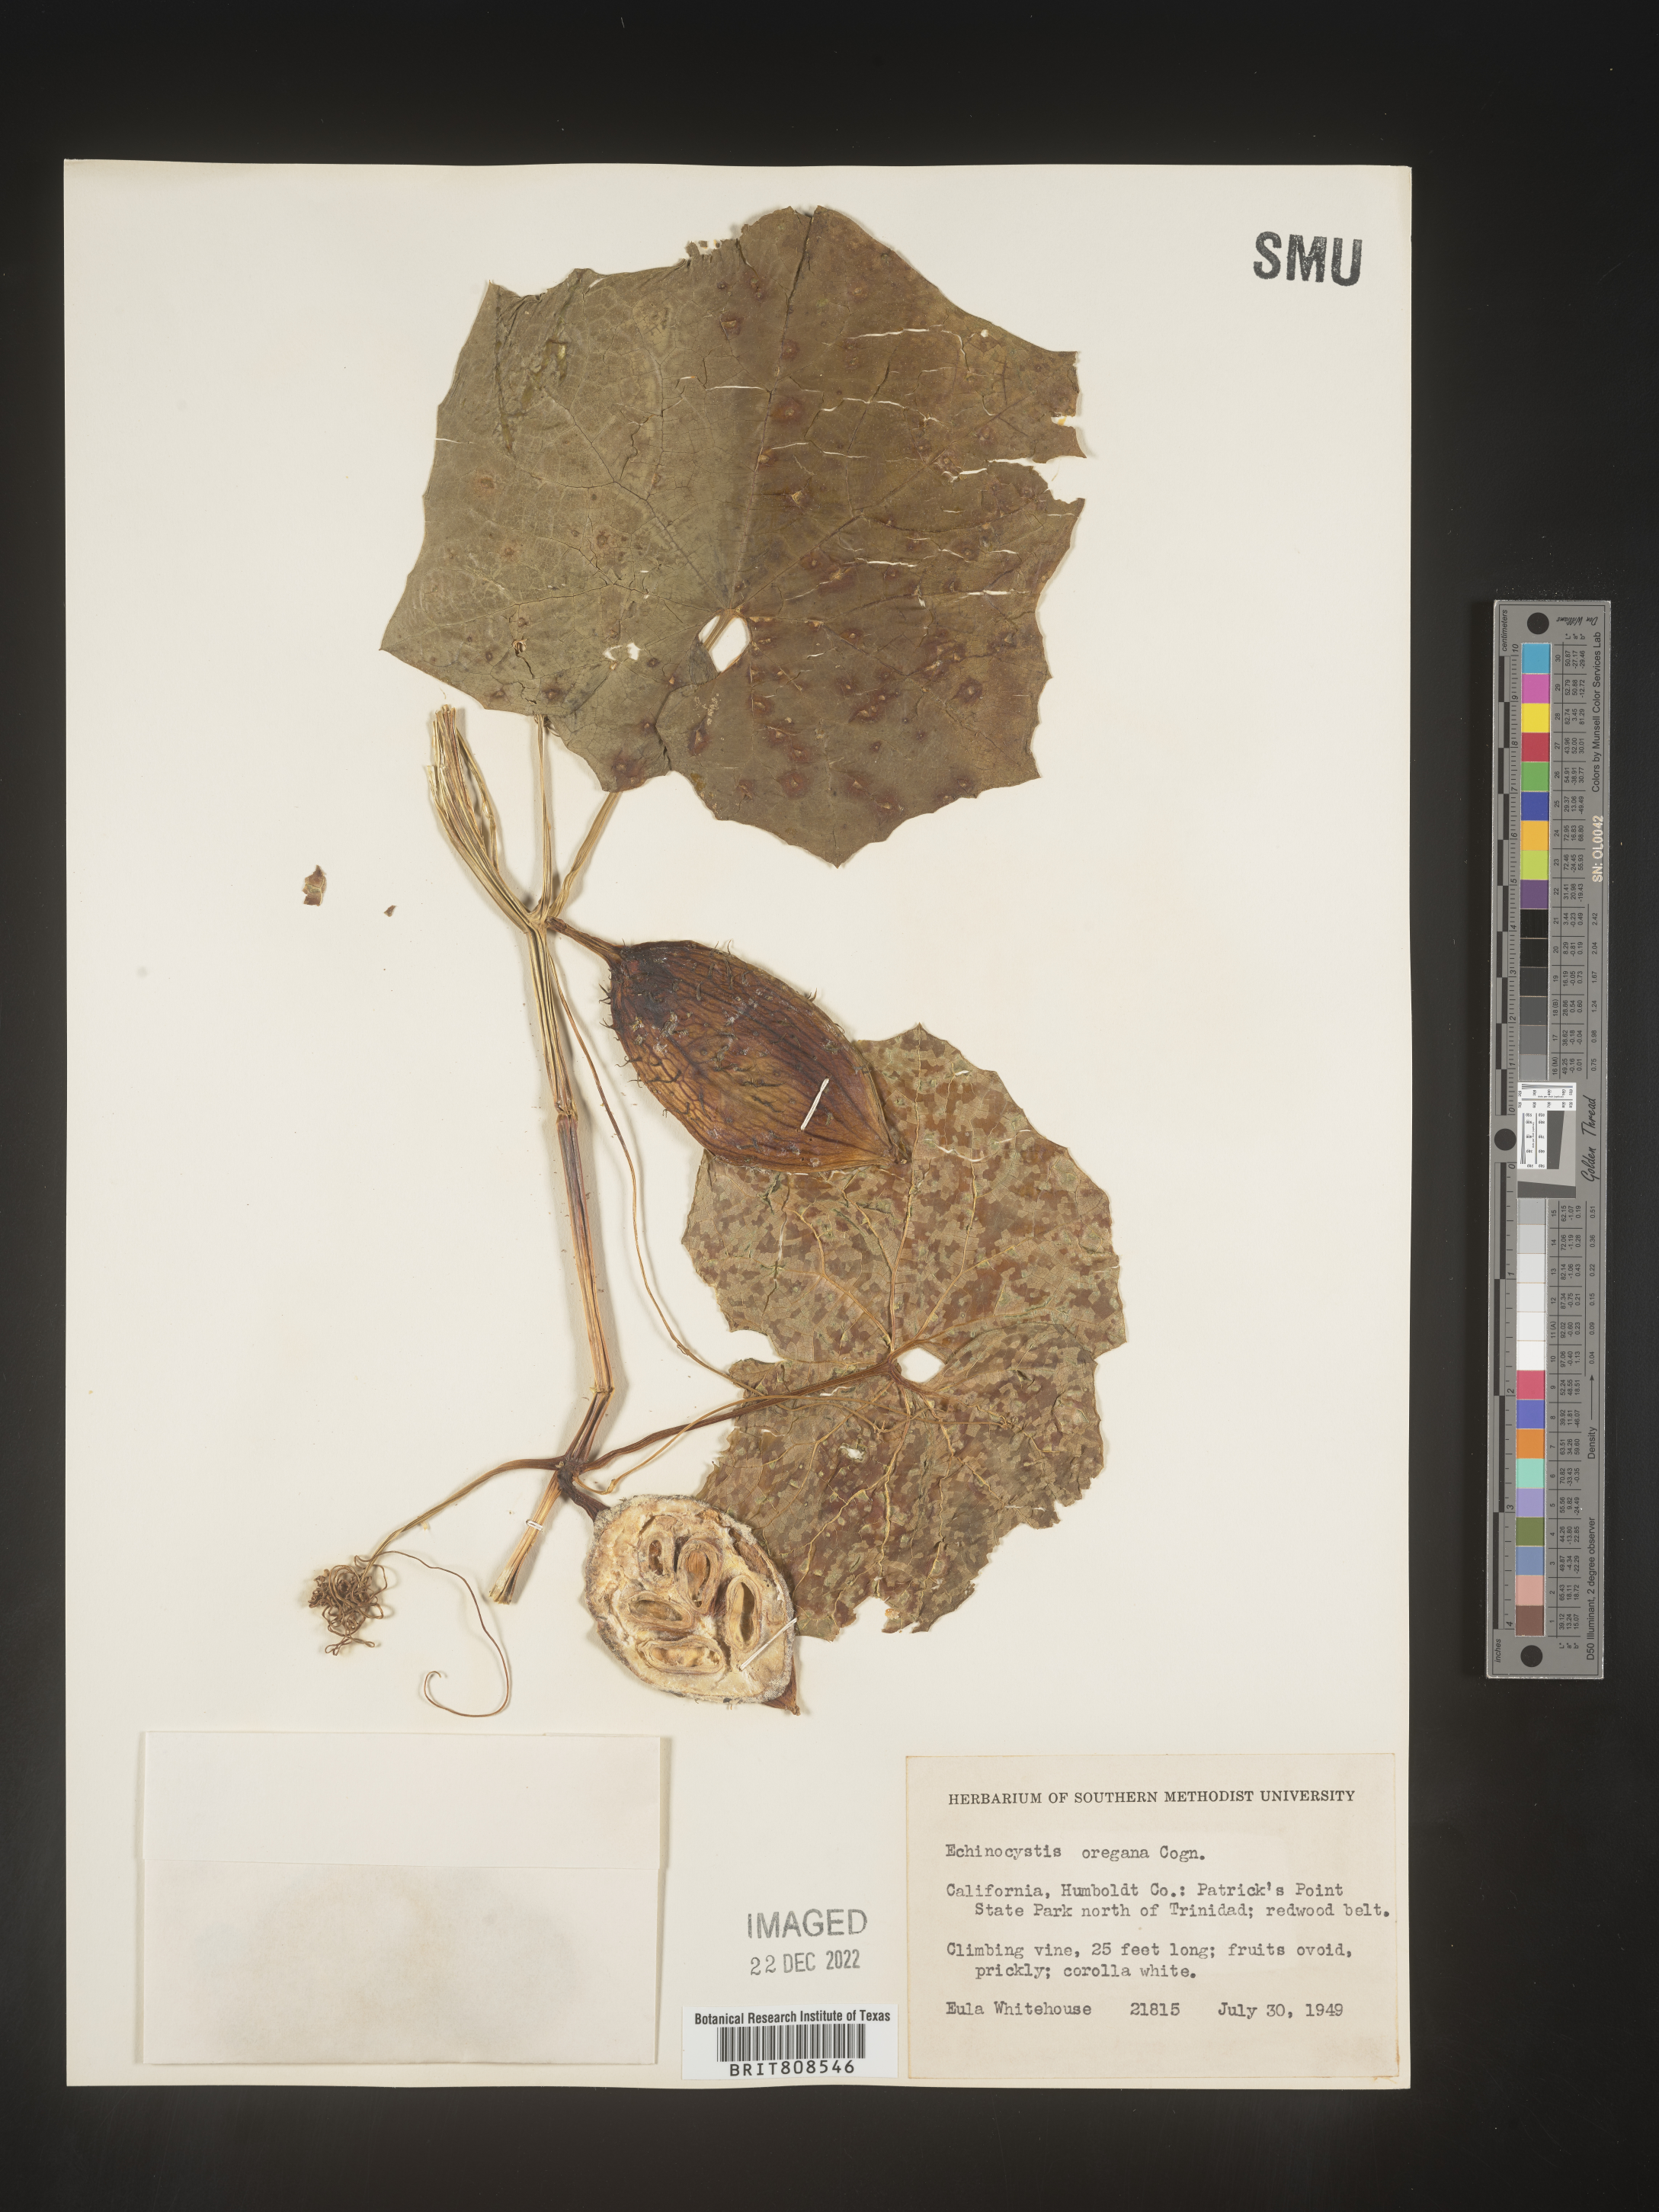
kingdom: Plantae
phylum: Tracheophyta
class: Magnoliopsida
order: Cucurbitales
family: Cucurbitaceae
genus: Marah
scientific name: Marah
